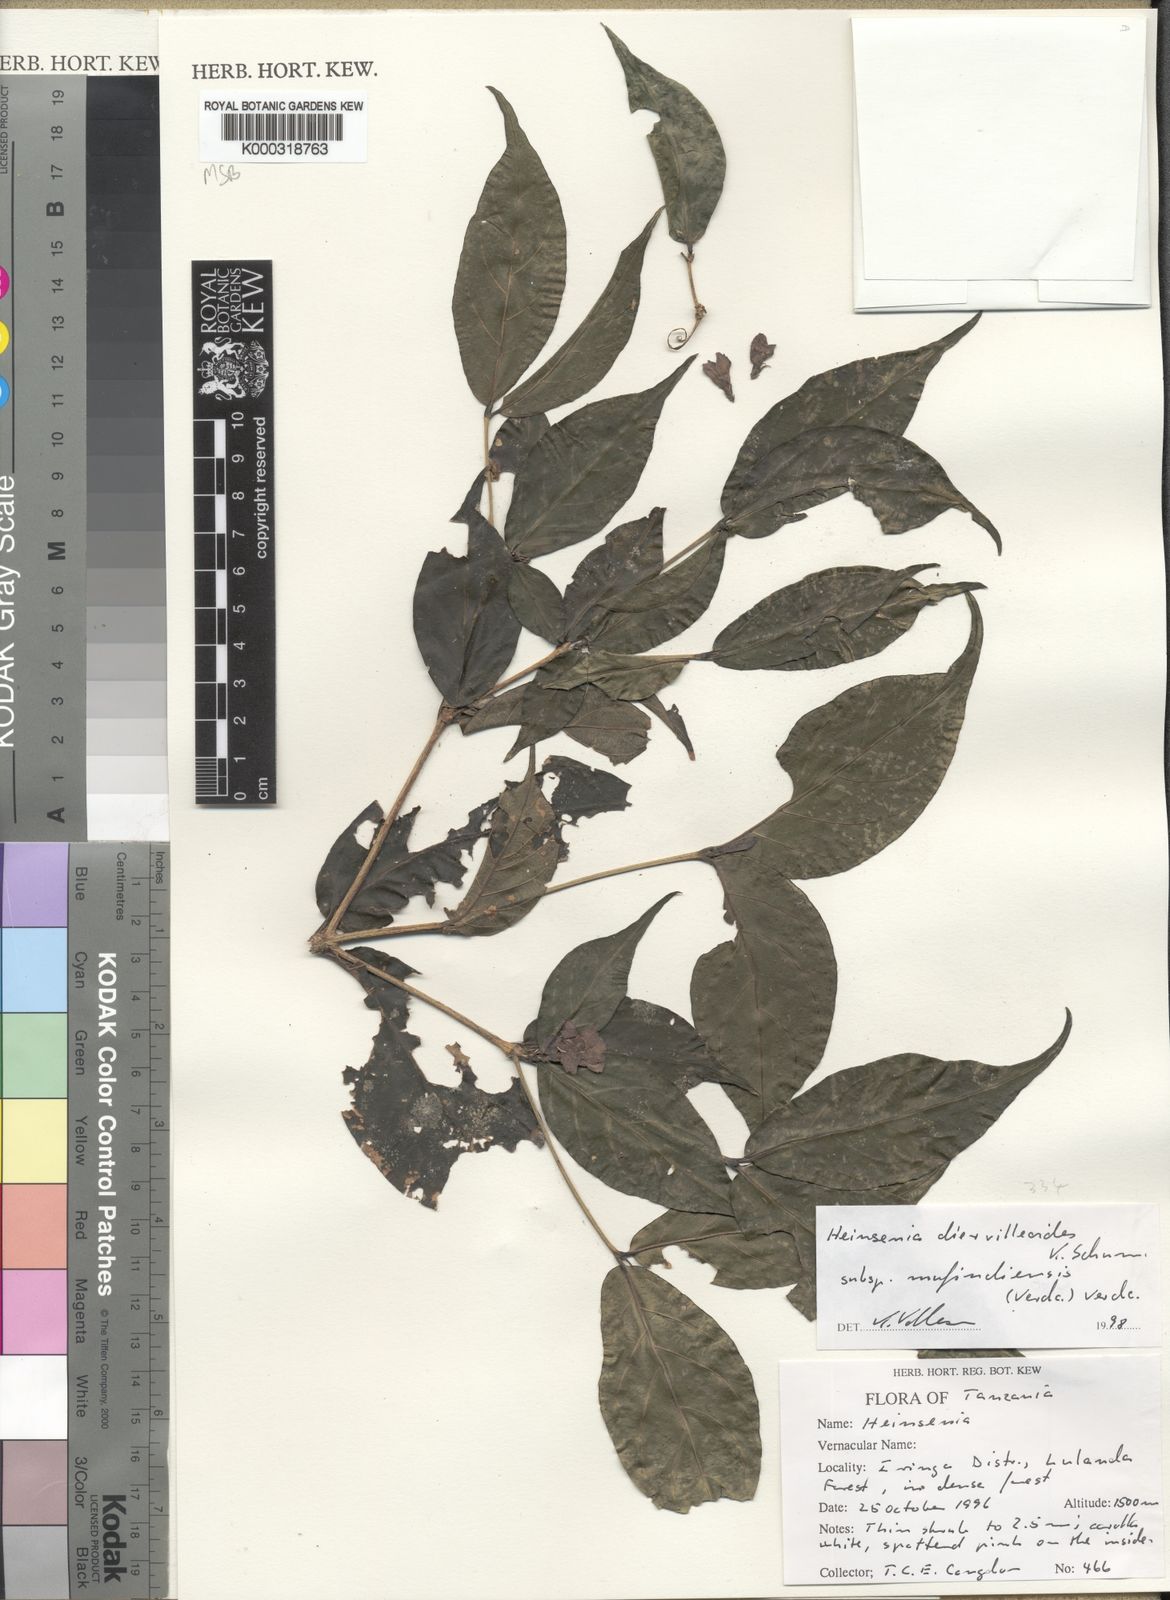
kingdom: Plantae
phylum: Tracheophyta
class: Magnoliopsida
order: Gentianales
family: Rubiaceae
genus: Heinsenia
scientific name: Heinsenia diervilleoides
